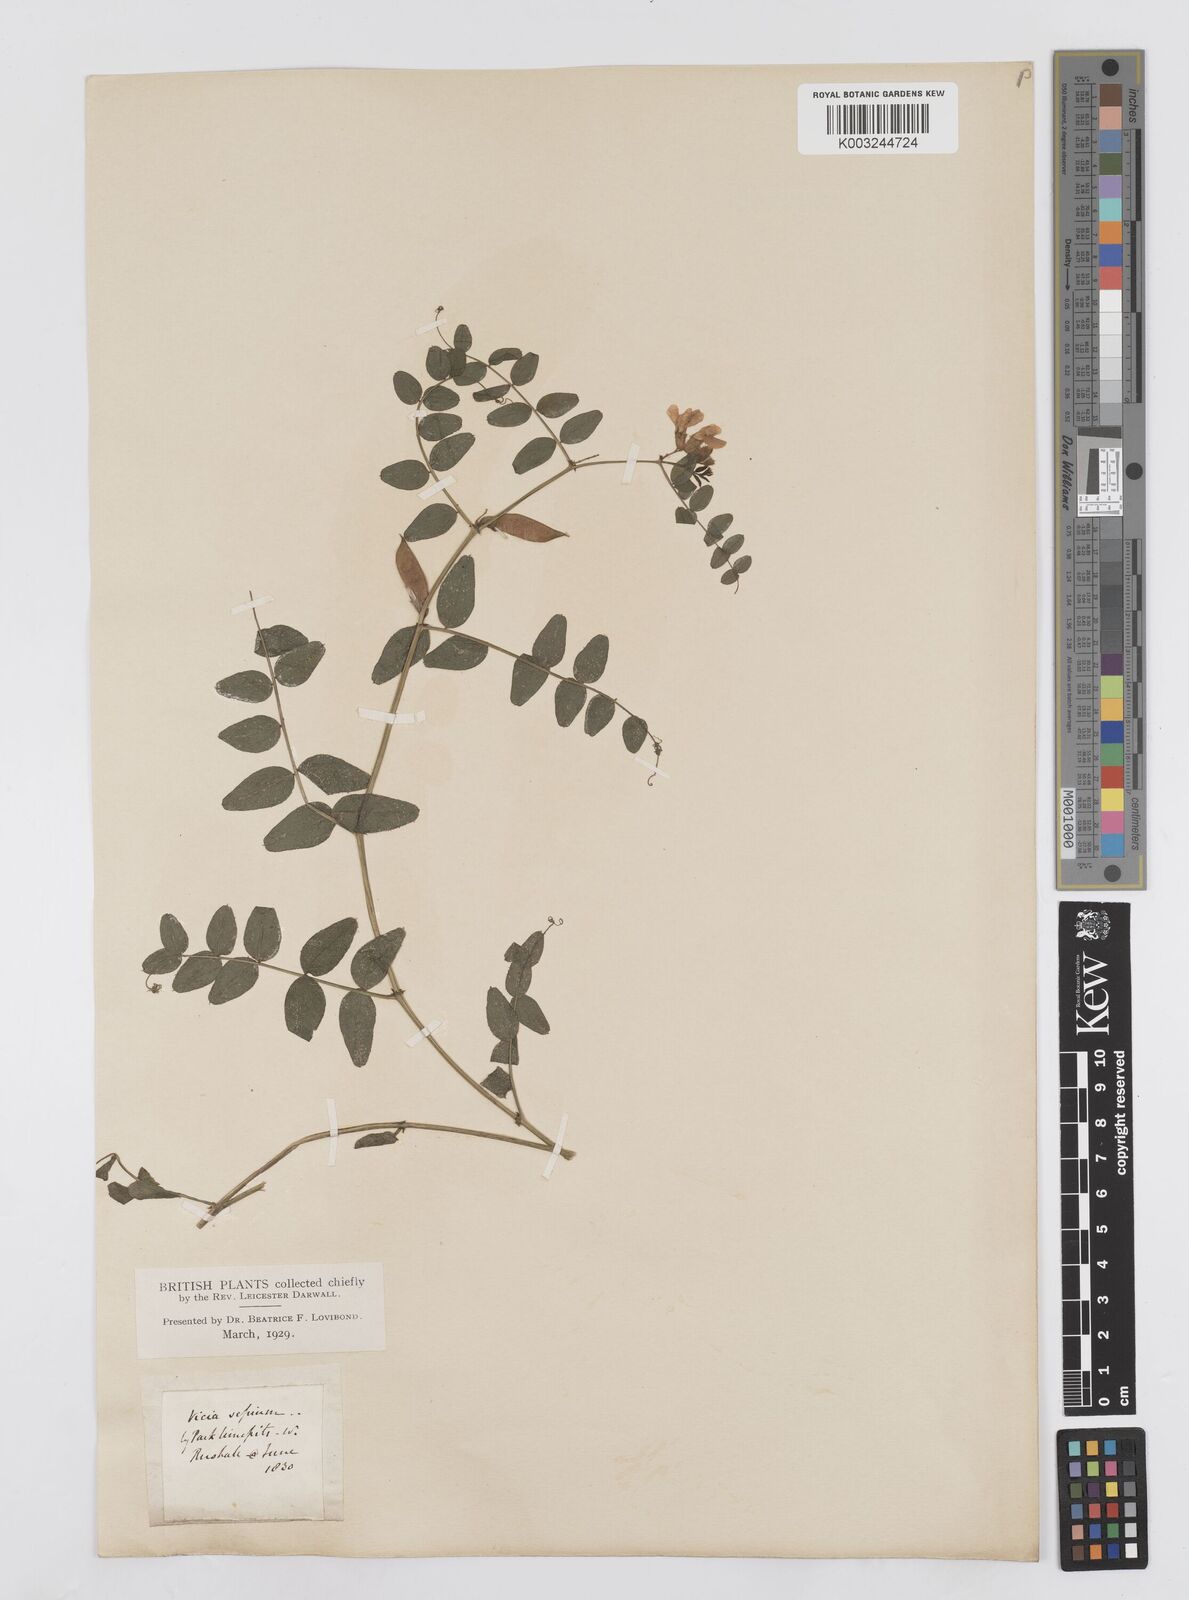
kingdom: Plantae
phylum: Tracheophyta
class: Magnoliopsida
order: Fabales
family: Fabaceae
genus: Vicia
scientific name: Vicia sepium
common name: Bush vetch
